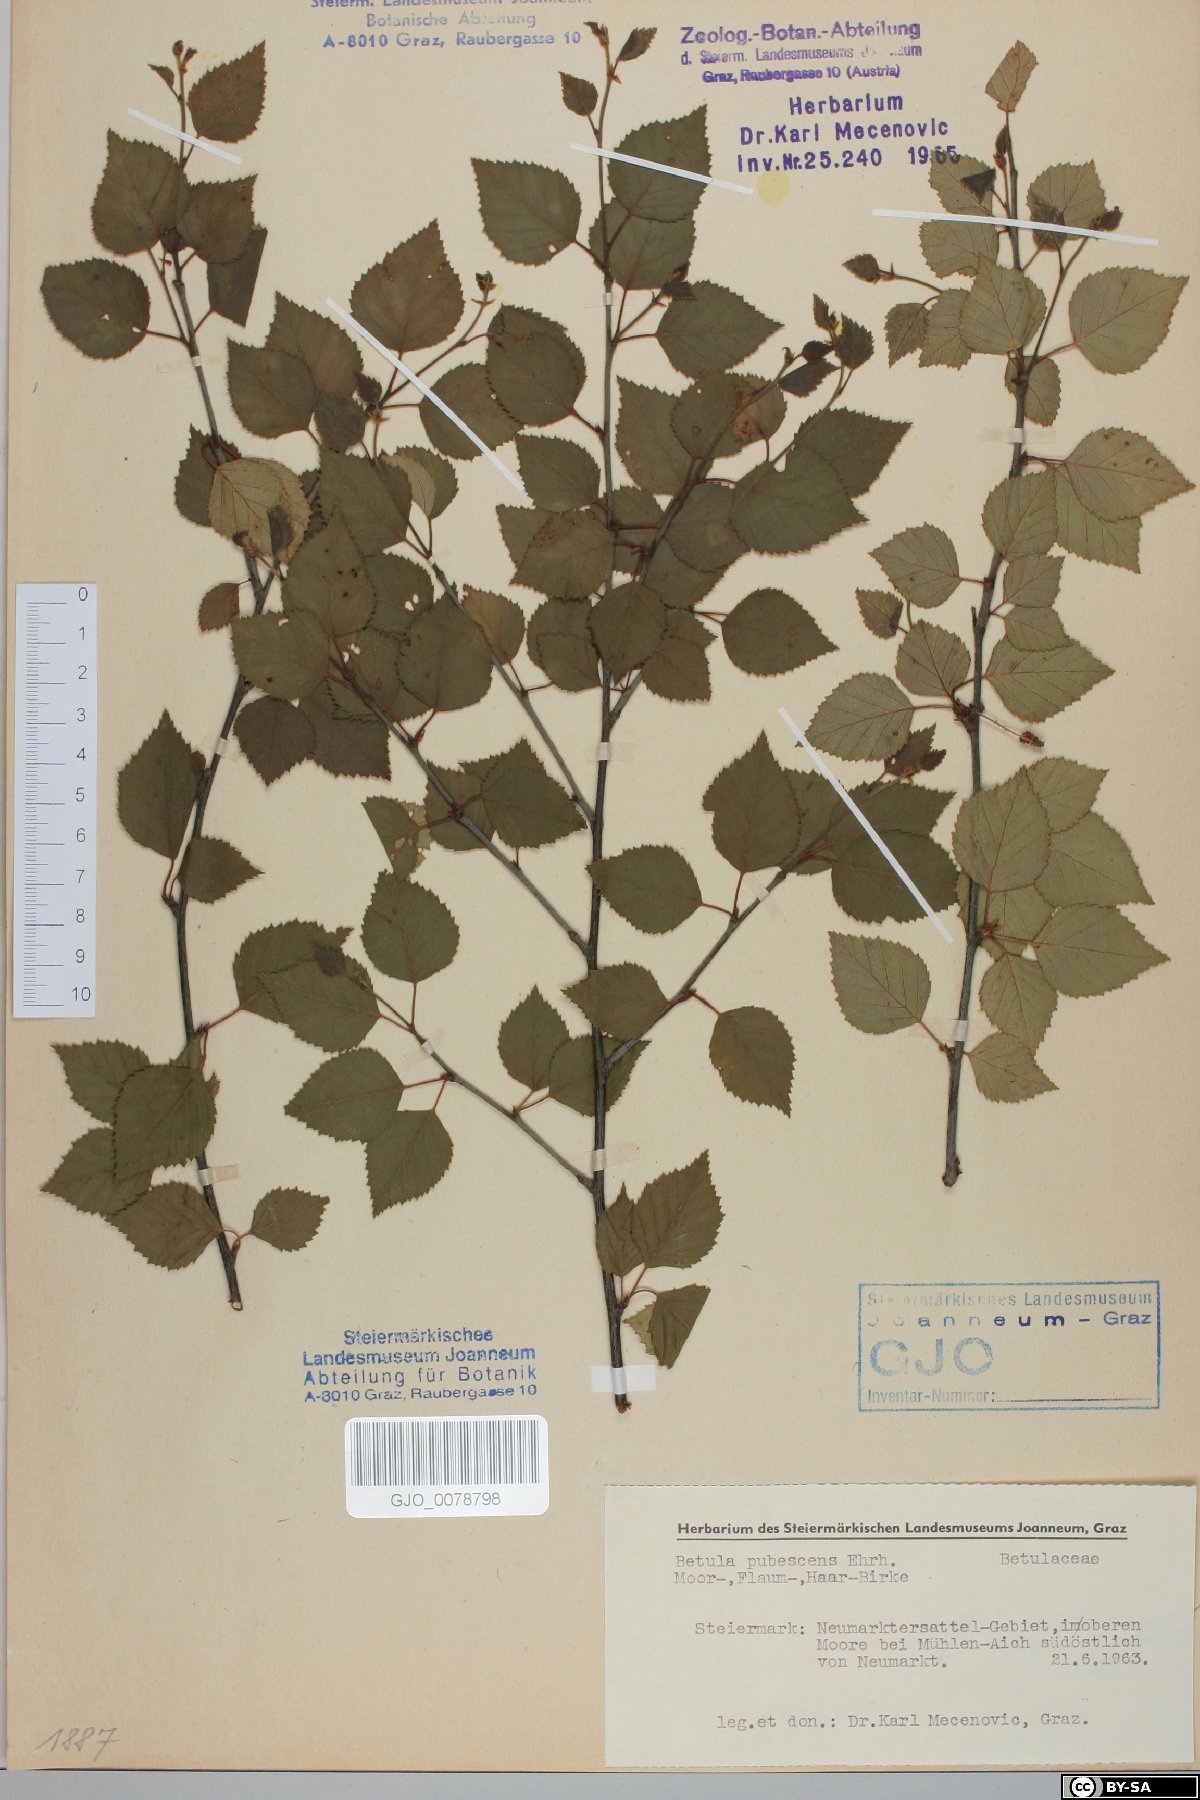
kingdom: Plantae
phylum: Tracheophyta
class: Magnoliopsida
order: Fagales
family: Betulaceae
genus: Betula
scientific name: Betula pubescens
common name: Downy birch
